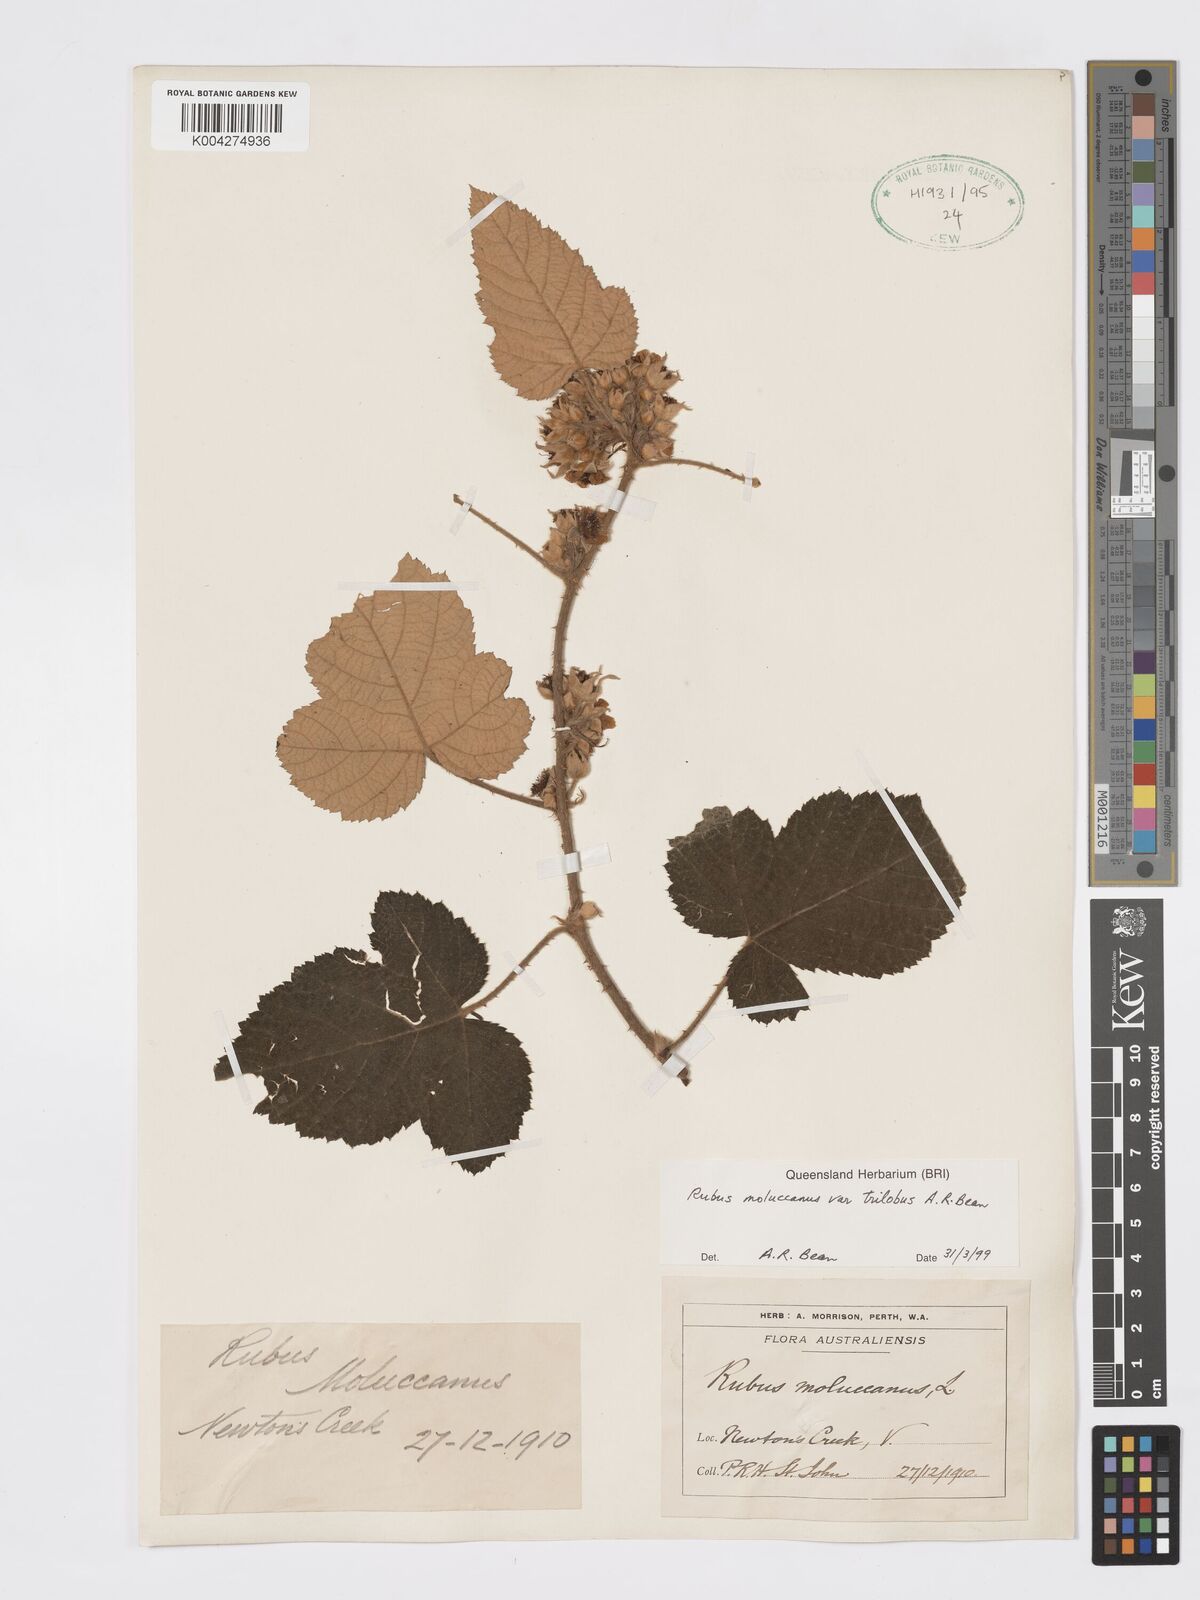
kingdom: Plantae
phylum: Tracheophyta
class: Magnoliopsida
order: Rosales
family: Rosaceae
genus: Rubus
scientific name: Rubus moluccanus
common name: Wild raspberry
